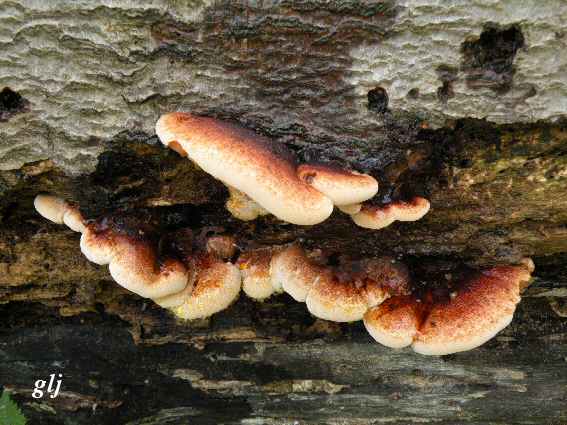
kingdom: Fungi
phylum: Basidiomycota
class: Agaricomycetes
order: Polyporales
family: Ischnodermataceae
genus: Ischnoderma
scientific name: Ischnoderma resinosum
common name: løv-tjæreporesvamp
